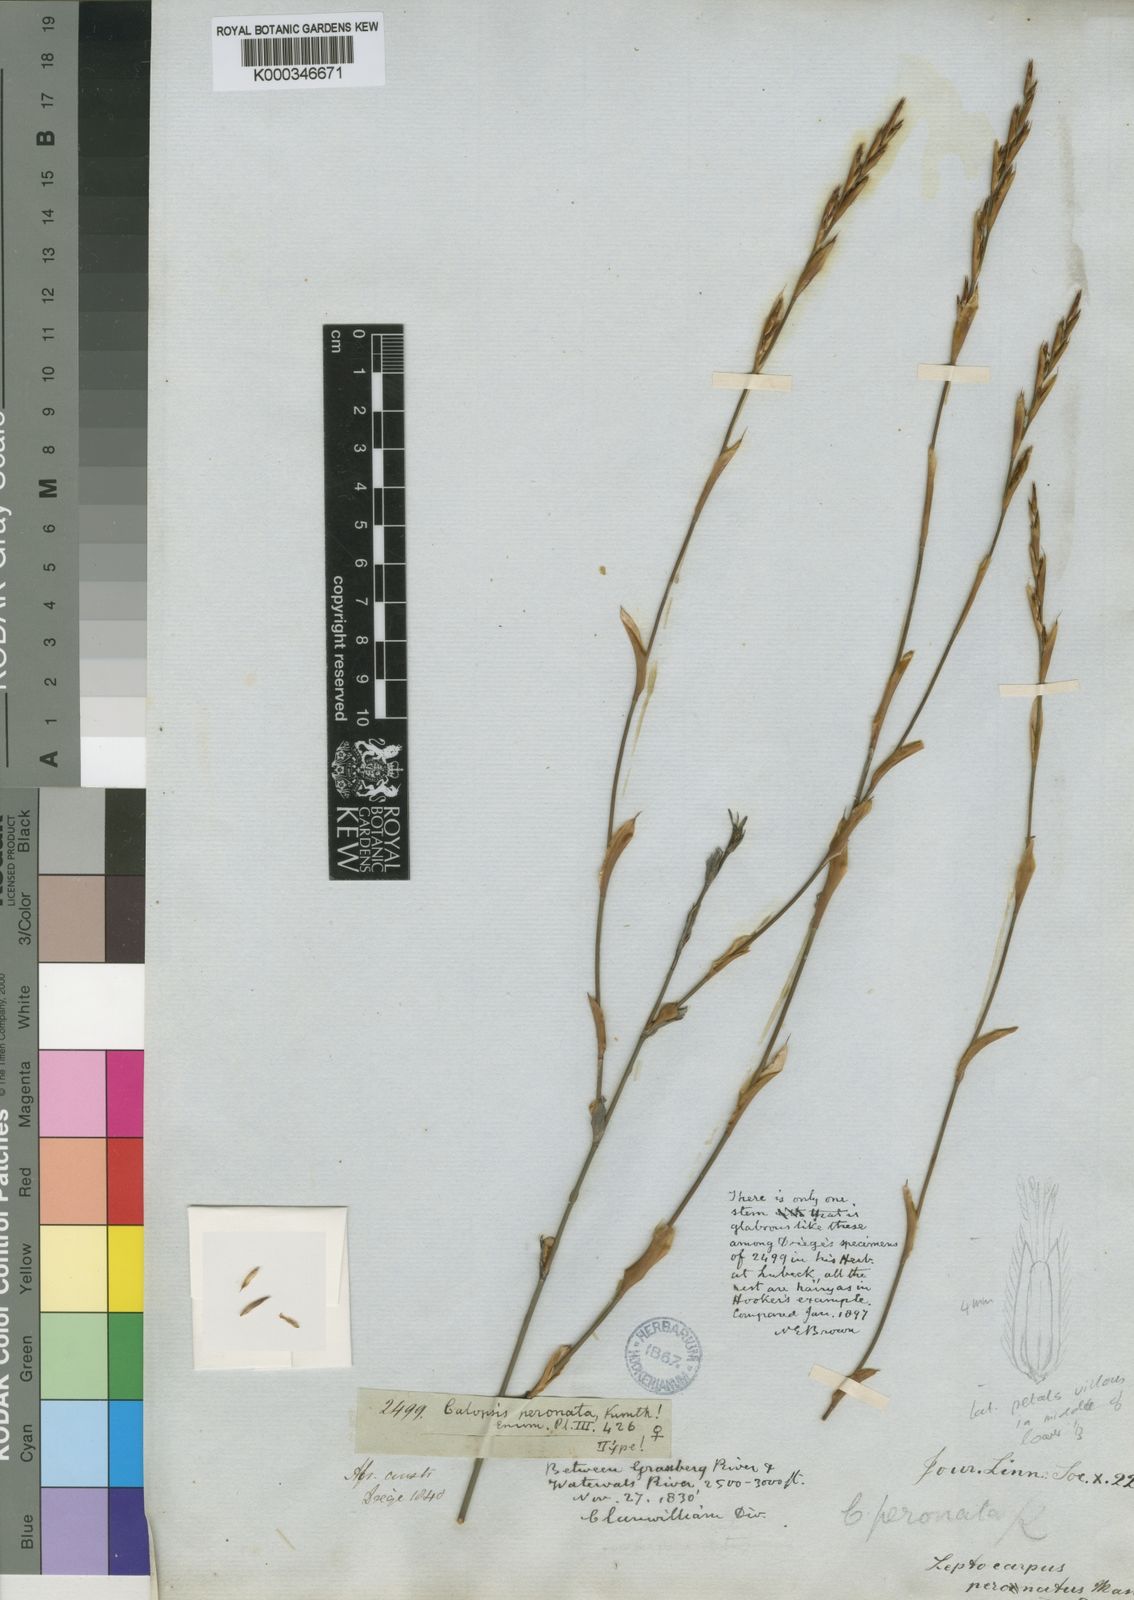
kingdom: Plantae
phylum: Tracheophyta
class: Liliopsida
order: Poales
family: Restionaceae
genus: Restio
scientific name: Restio vimineus
